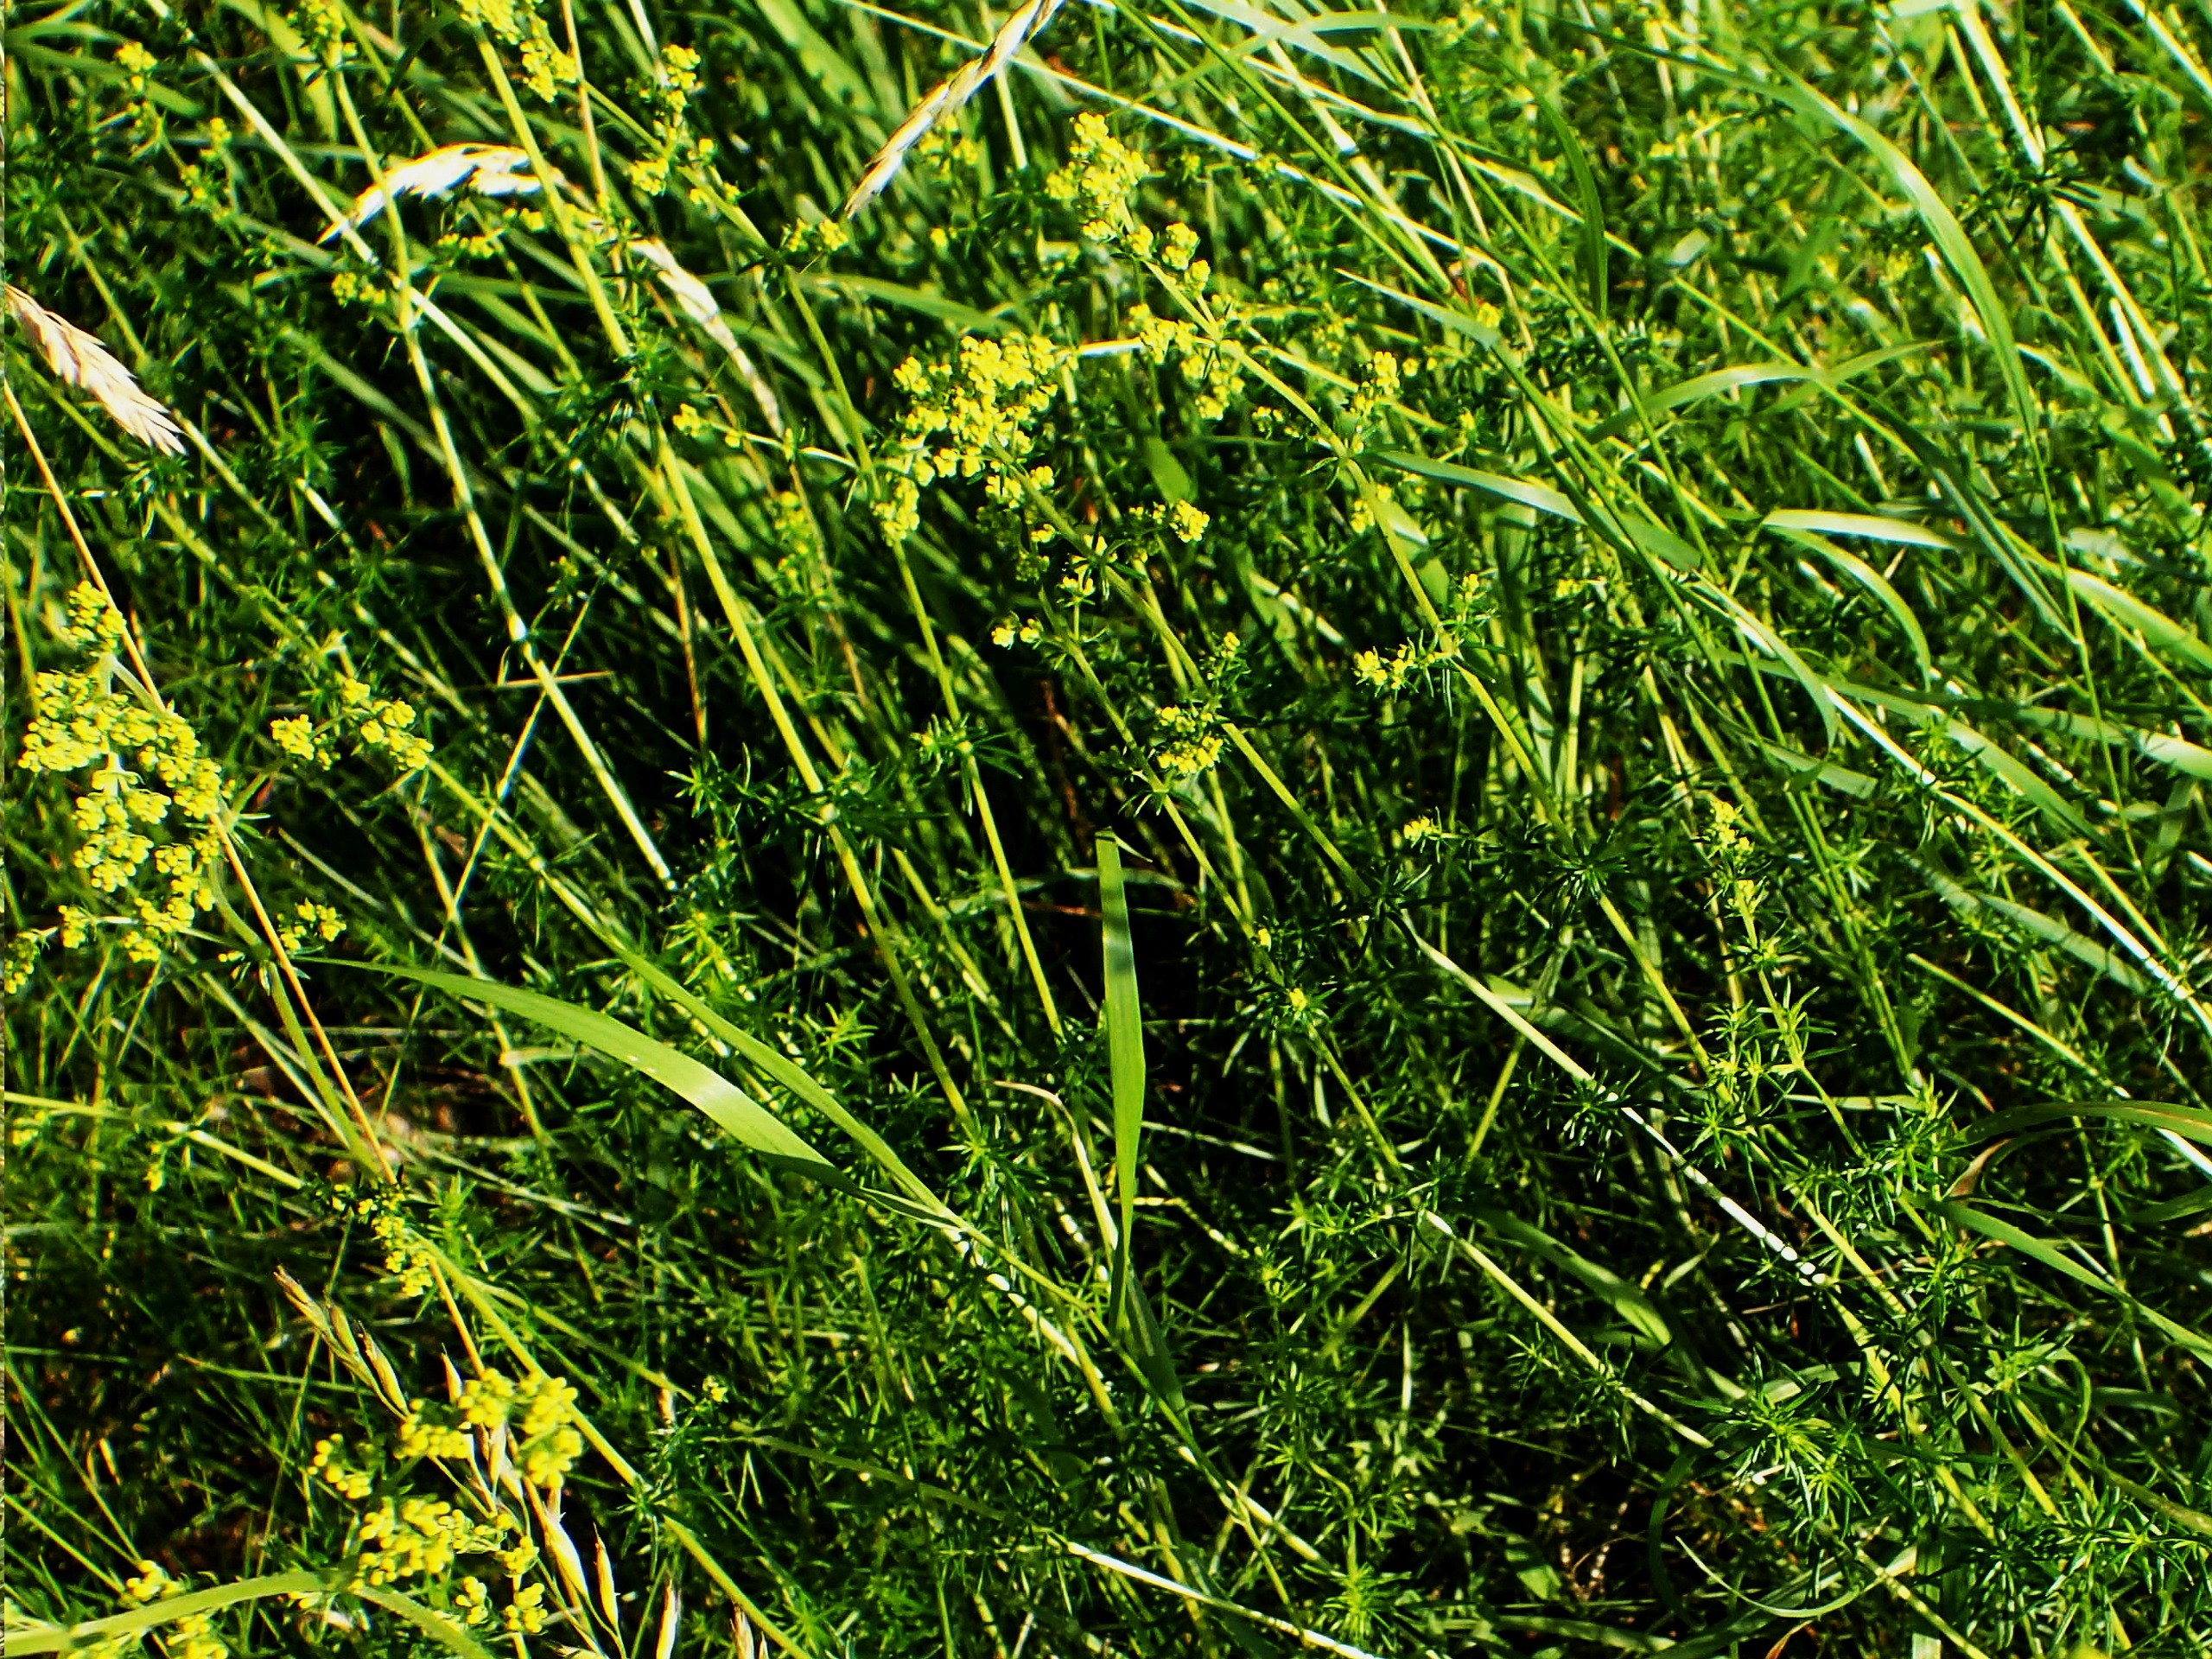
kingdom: Plantae
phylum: Tracheophyta
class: Magnoliopsida
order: Gentianales
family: Rubiaceae
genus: Galium
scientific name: Galium verum
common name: Gul snerre
